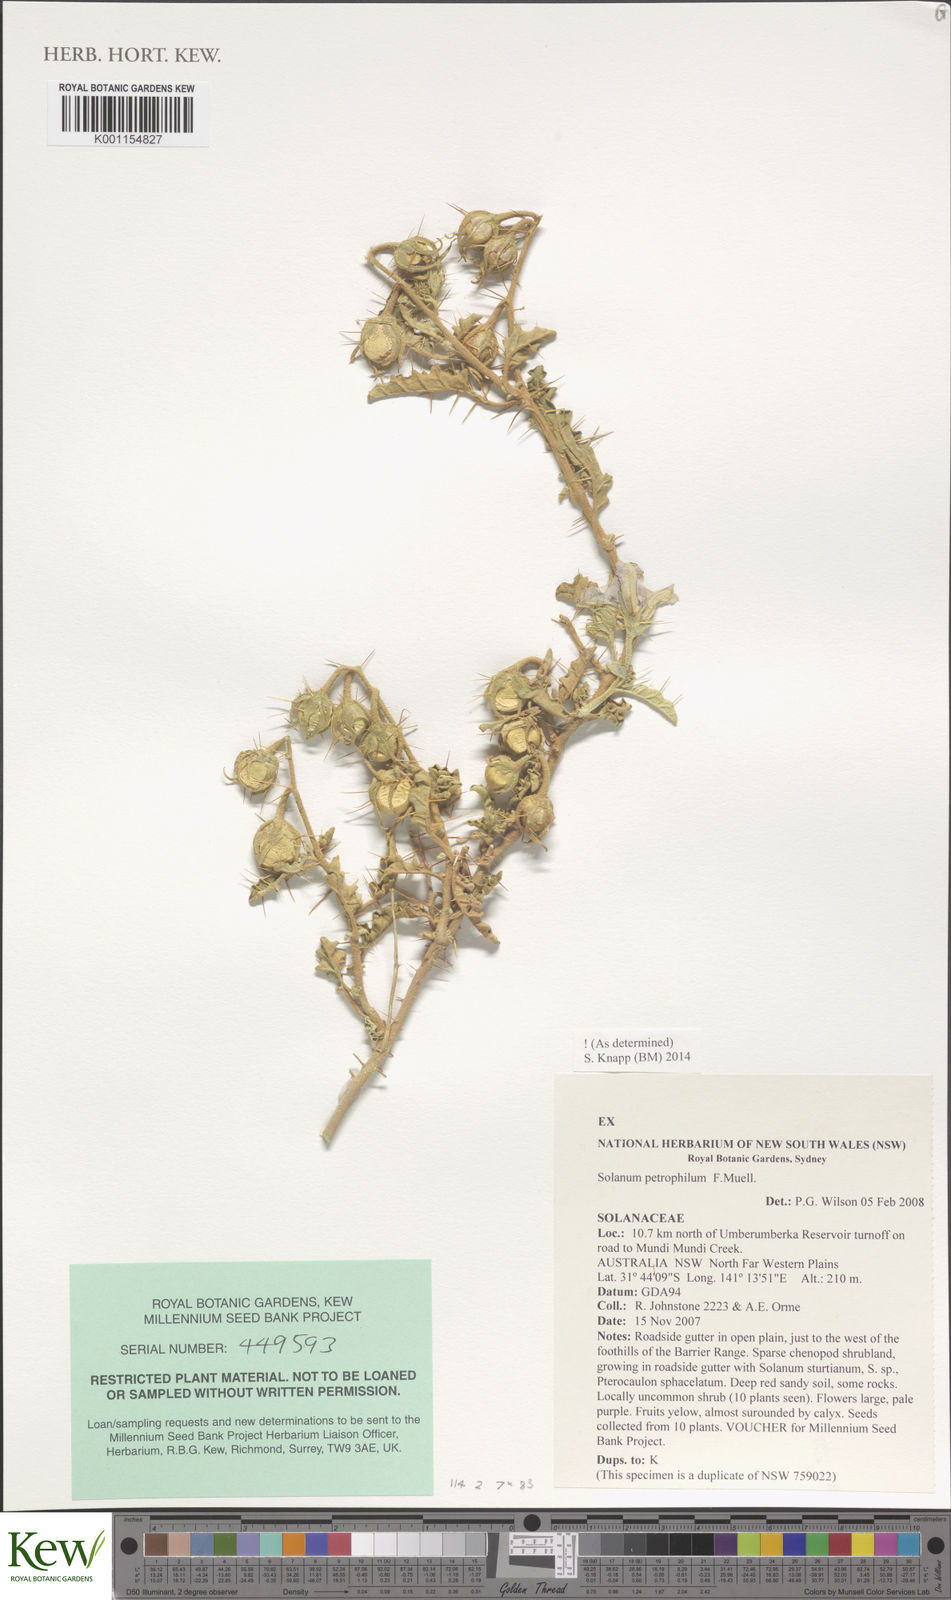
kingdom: Plantae
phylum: Tracheophyta
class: Magnoliopsida
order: Solanales
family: Solanaceae
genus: Solanum
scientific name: Solanum petrophilum
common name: Rock nightshade
